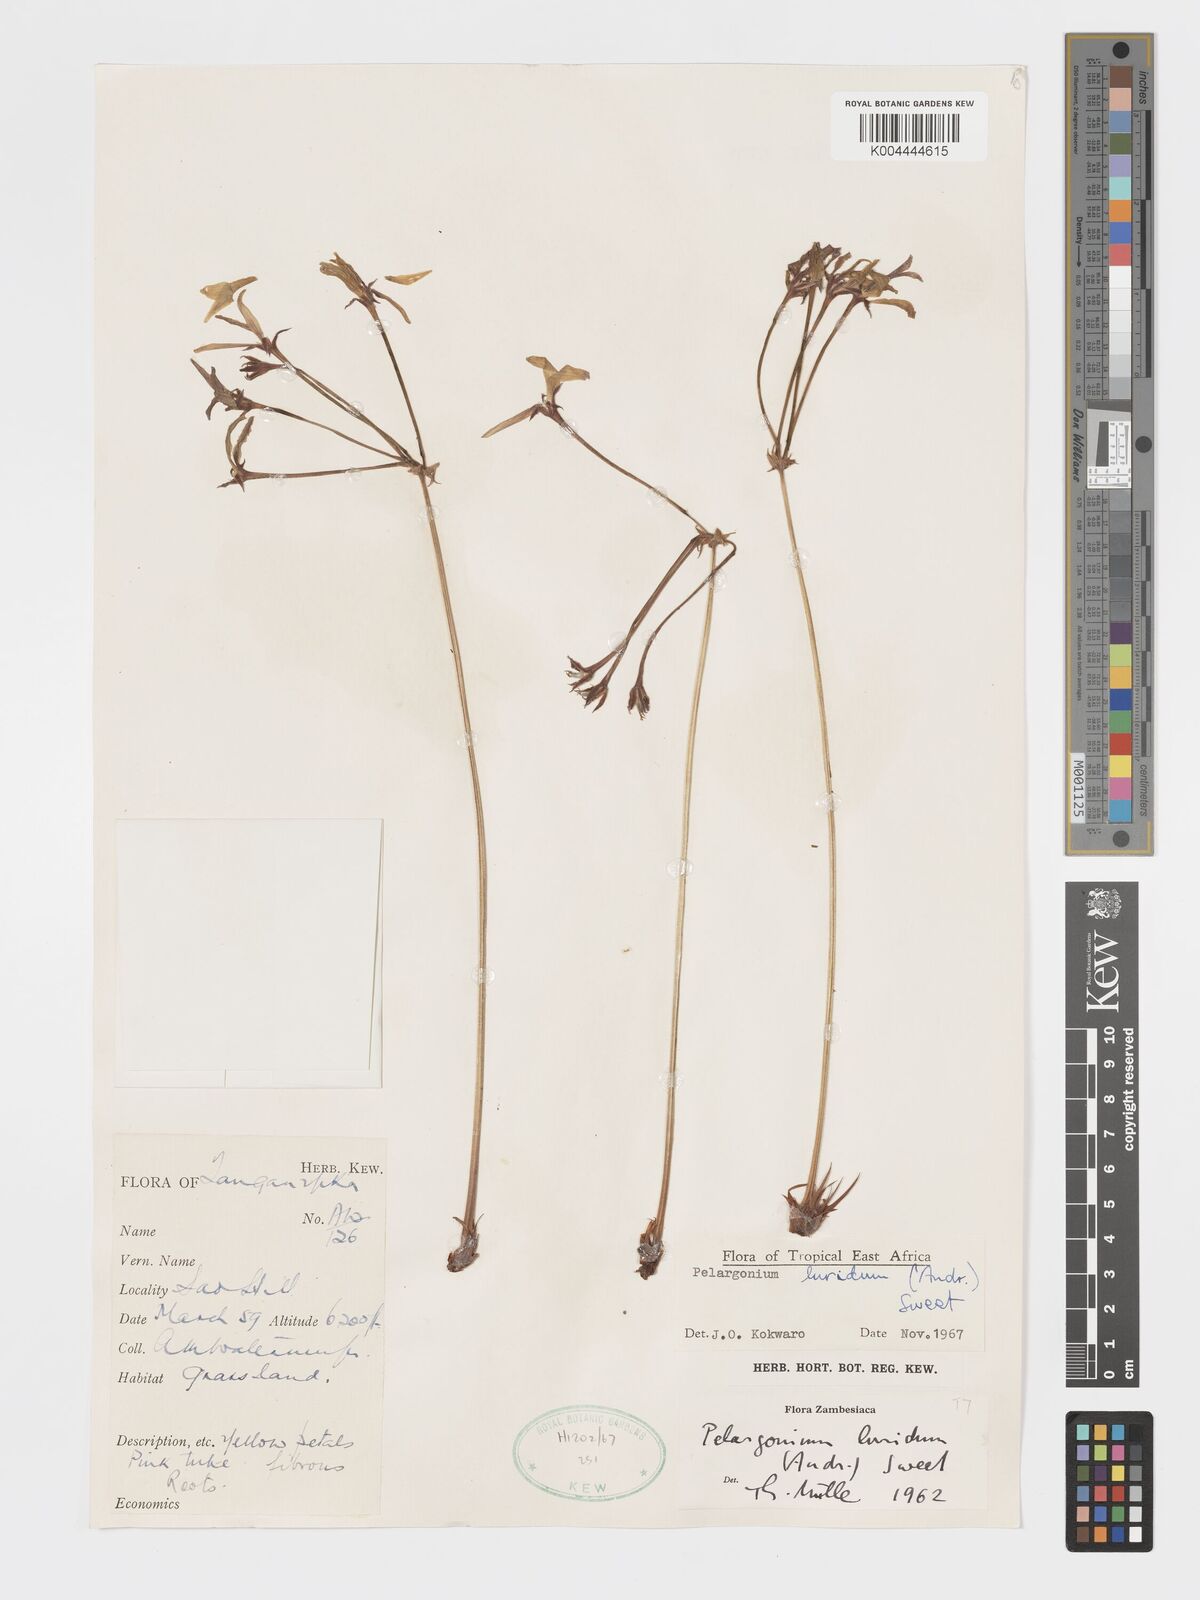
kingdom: Plantae
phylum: Tracheophyta
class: Magnoliopsida
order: Geraniales
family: Geraniaceae
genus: Pelargonium
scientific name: Pelargonium luridum
